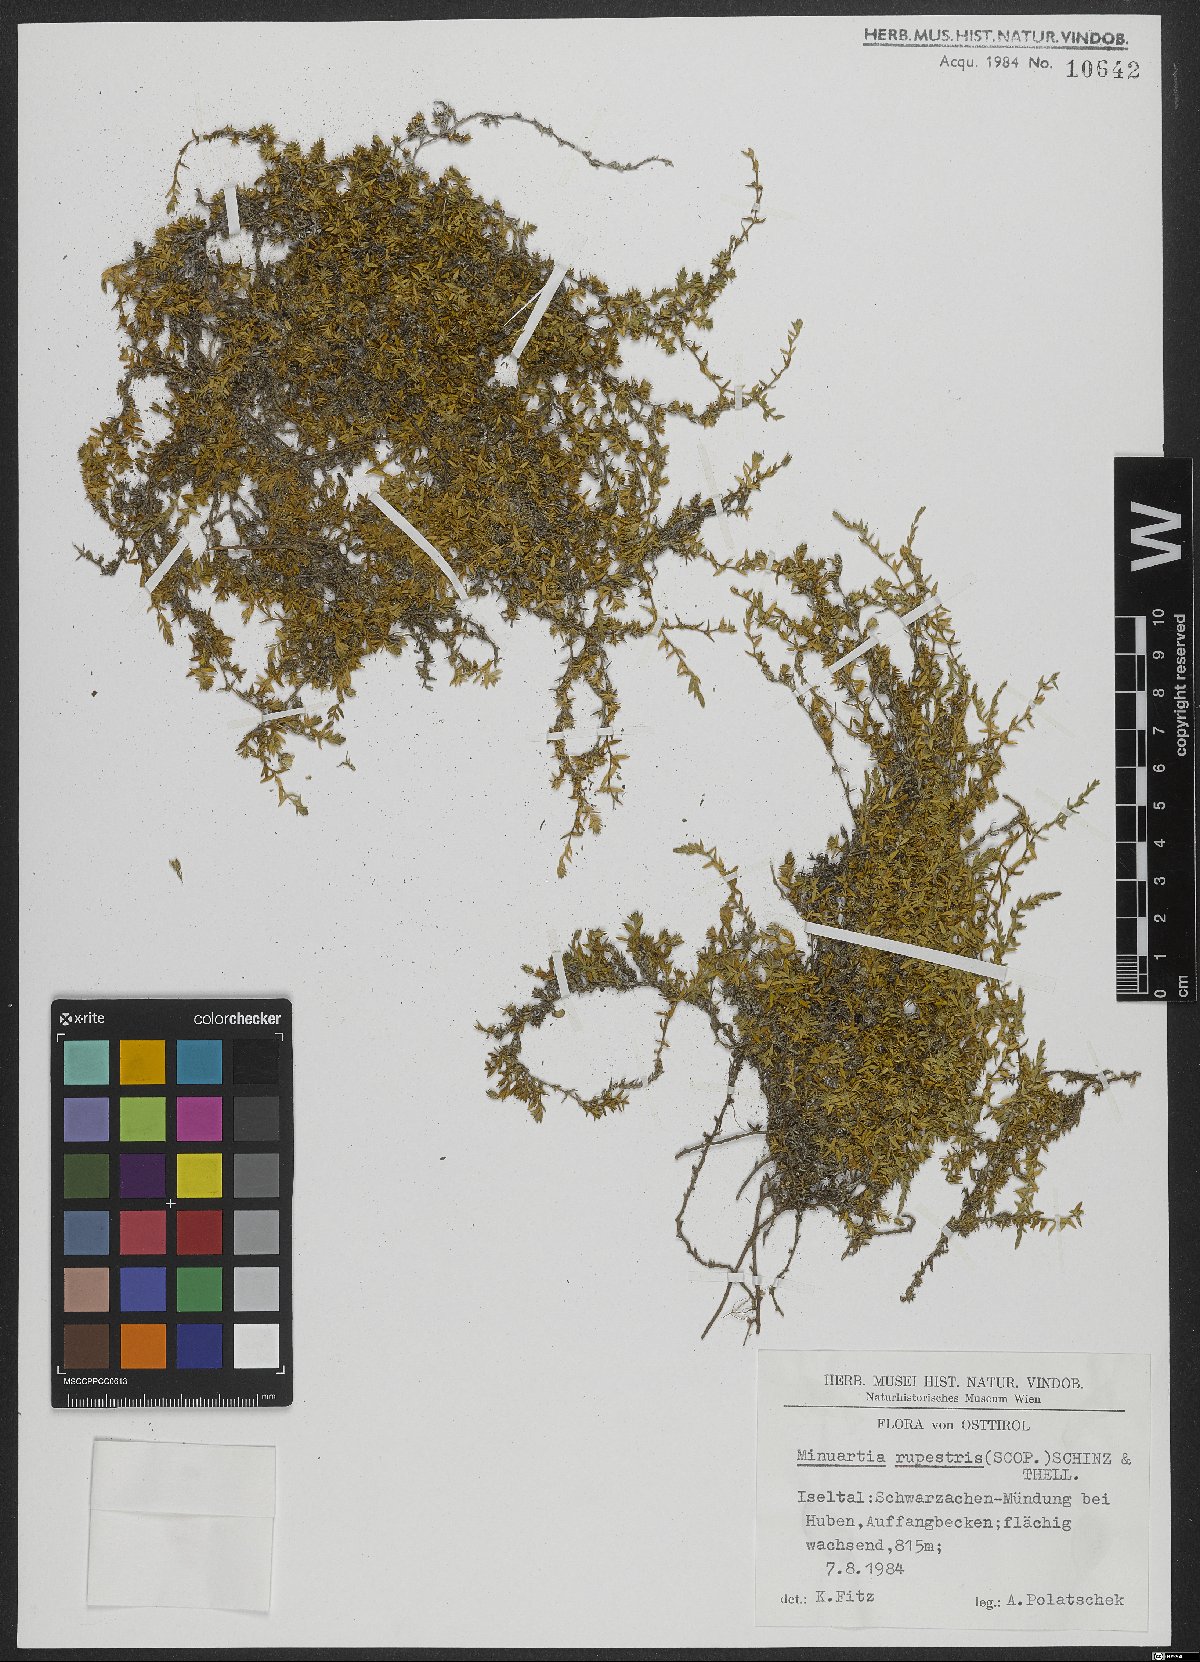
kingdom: Plantae
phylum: Tracheophyta
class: Magnoliopsida
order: Caryophyllales
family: Caryophyllaceae
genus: Facchinia
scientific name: Facchinia rupestris
